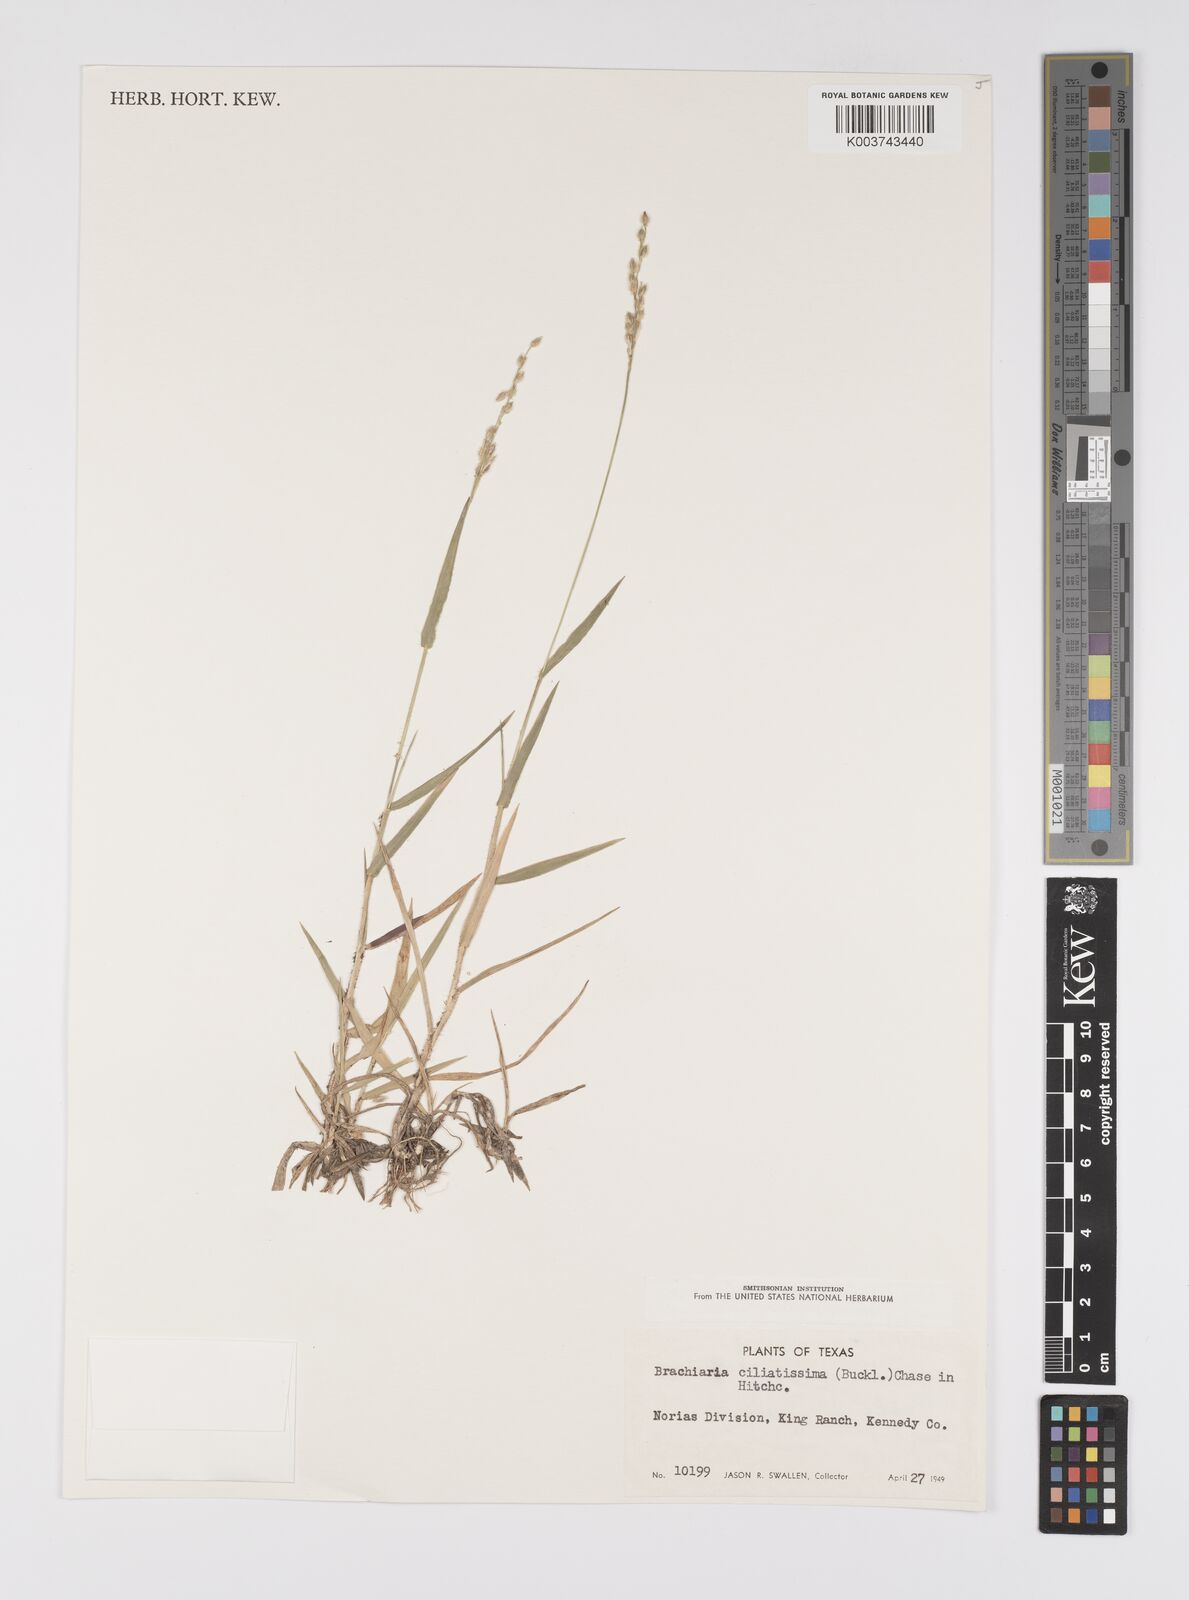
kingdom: Plantae
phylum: Tracheophyta
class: Liliopsida
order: Poales
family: Poaceae
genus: Urochloa
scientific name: Urochloa ciliatissima
